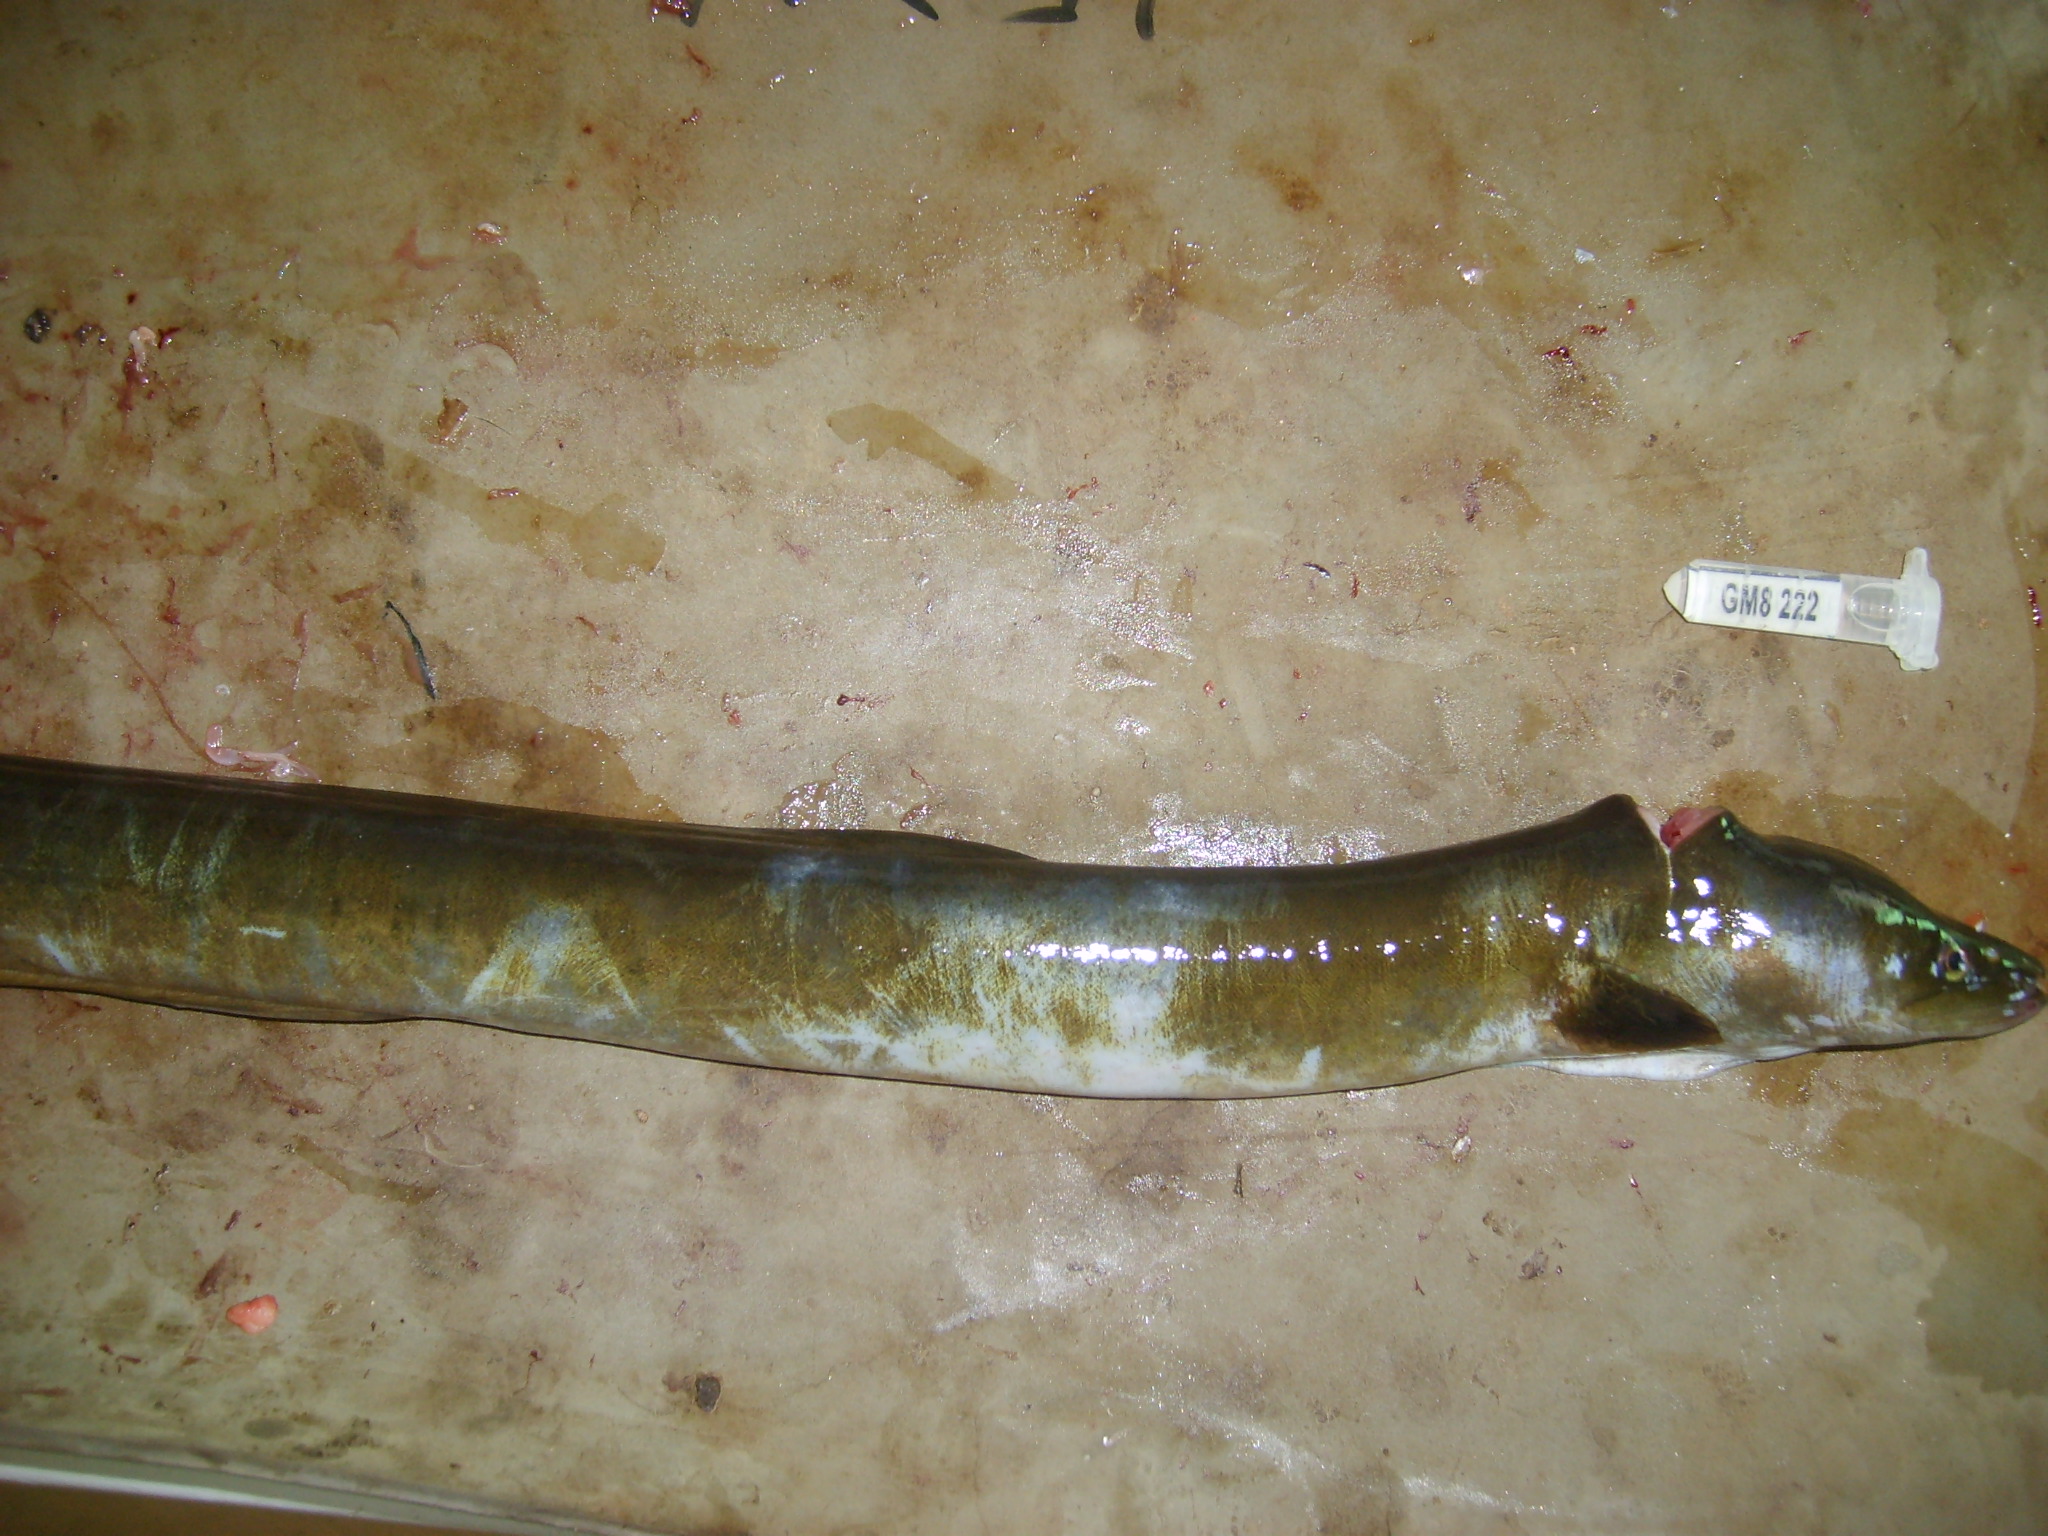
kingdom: Animalia
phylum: Chordata
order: Anguilliformes
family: Anguillidae
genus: Anguilla
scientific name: Anguilla mossambica
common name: African longfin eel
